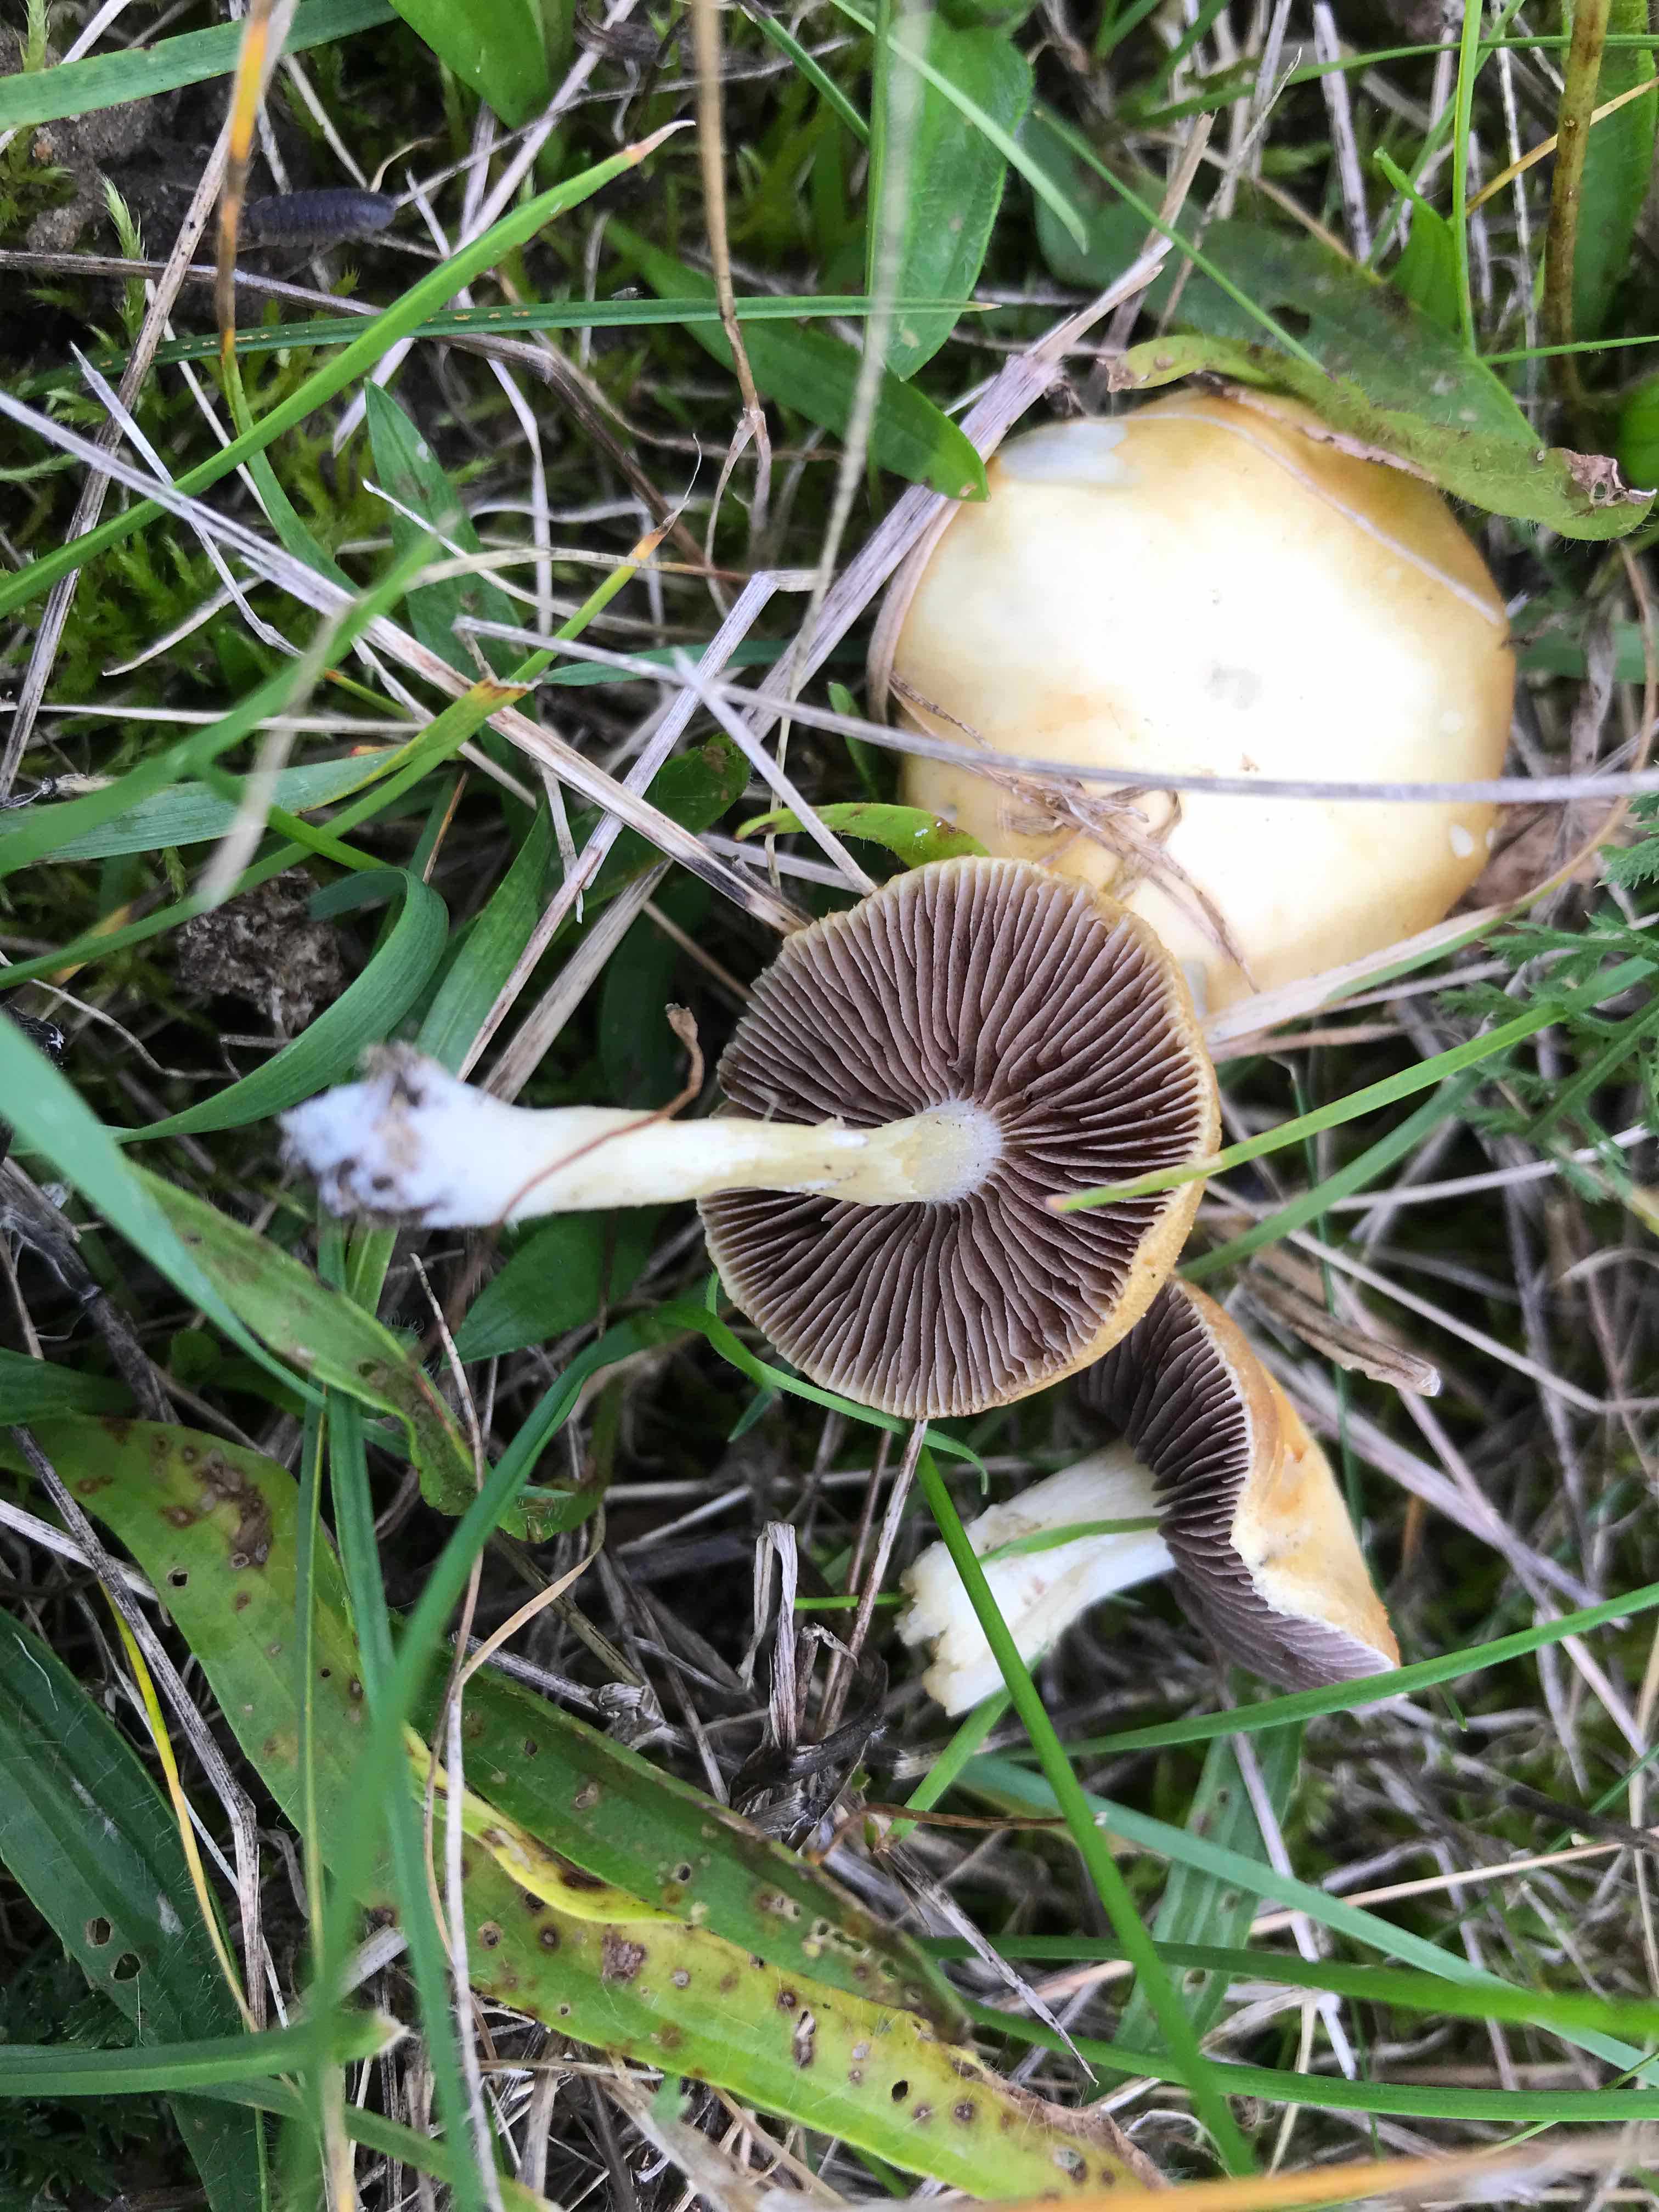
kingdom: Fungi
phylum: Basidiomycota
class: Agaricomycetes
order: Agaricales
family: Hymenogastraceae
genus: Psilocybe
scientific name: Psilocybe coronilla
